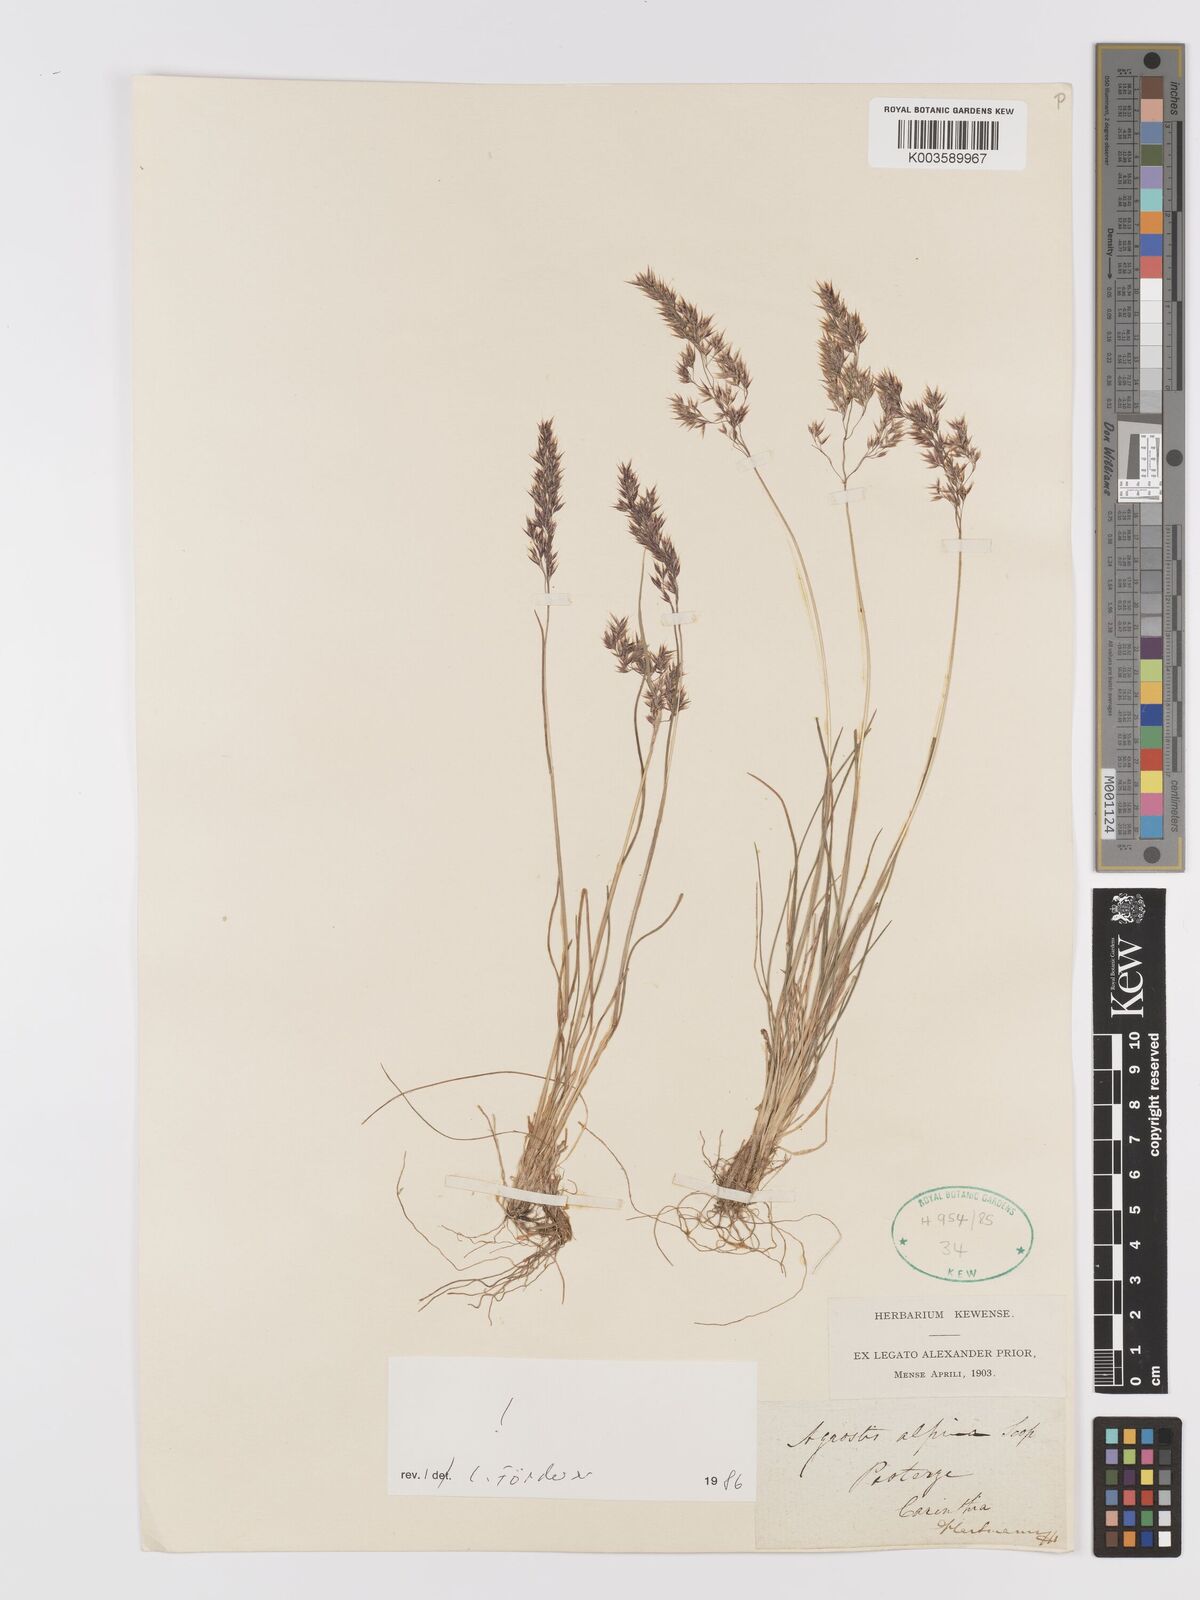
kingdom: Plantae
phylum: Tracheophyta
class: Liliopsida
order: Poales
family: Poaceae
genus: Alpagrostis
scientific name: Alpagrostis alpina
